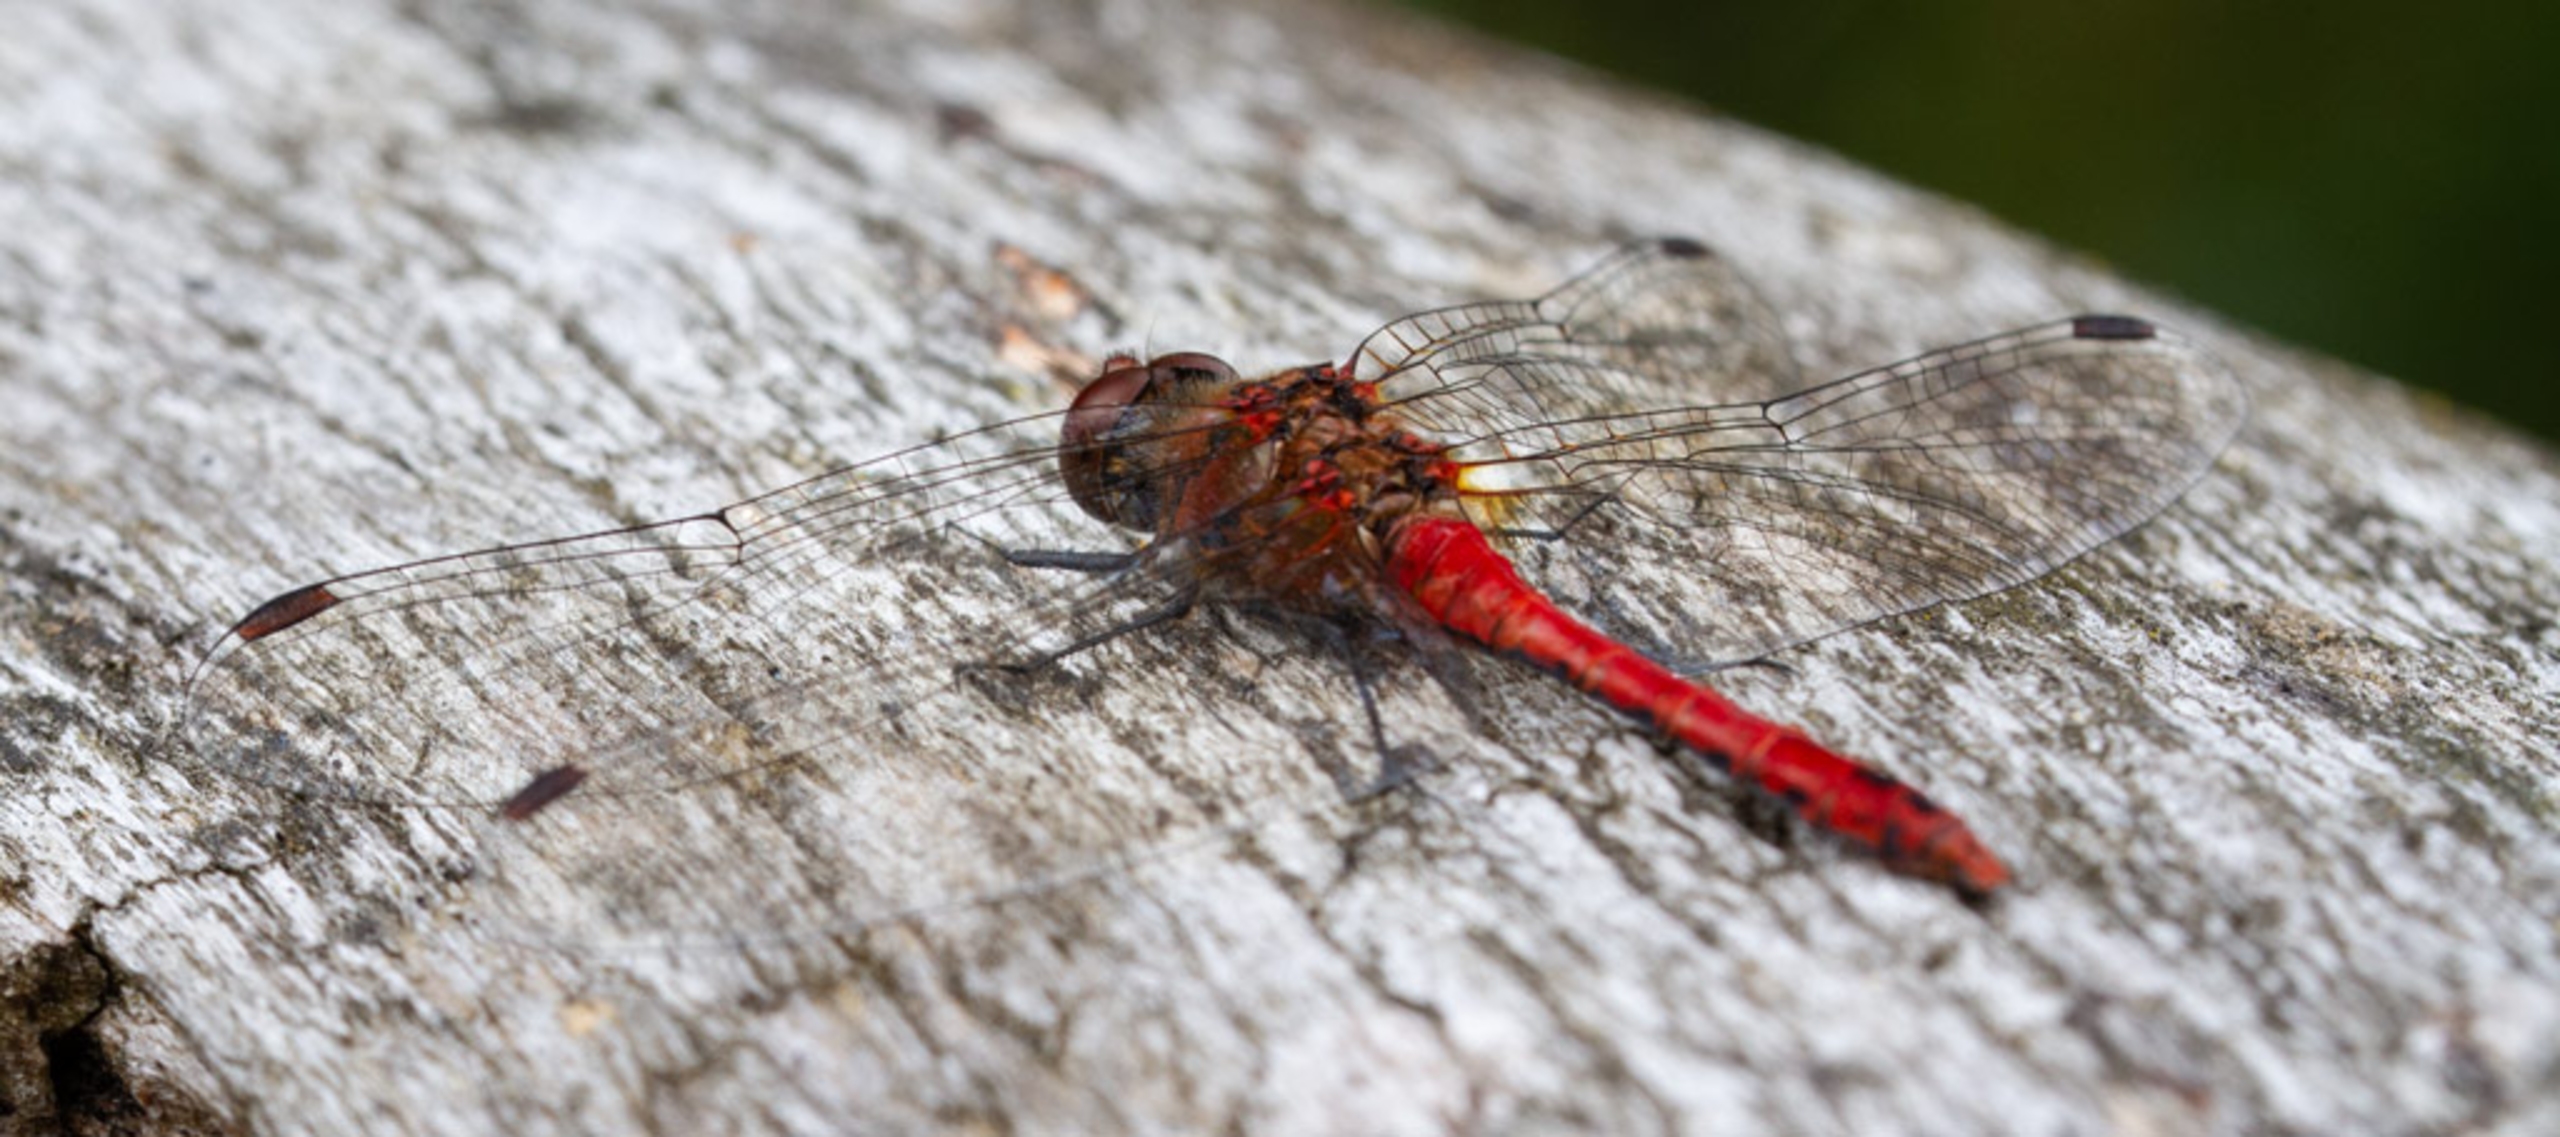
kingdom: Animalia
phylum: Arthropoda
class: Insecta
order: Odonata
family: Libellulidae
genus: Sympetrum
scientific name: Sympetrum sanguineum
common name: Blodrød hedelibel
